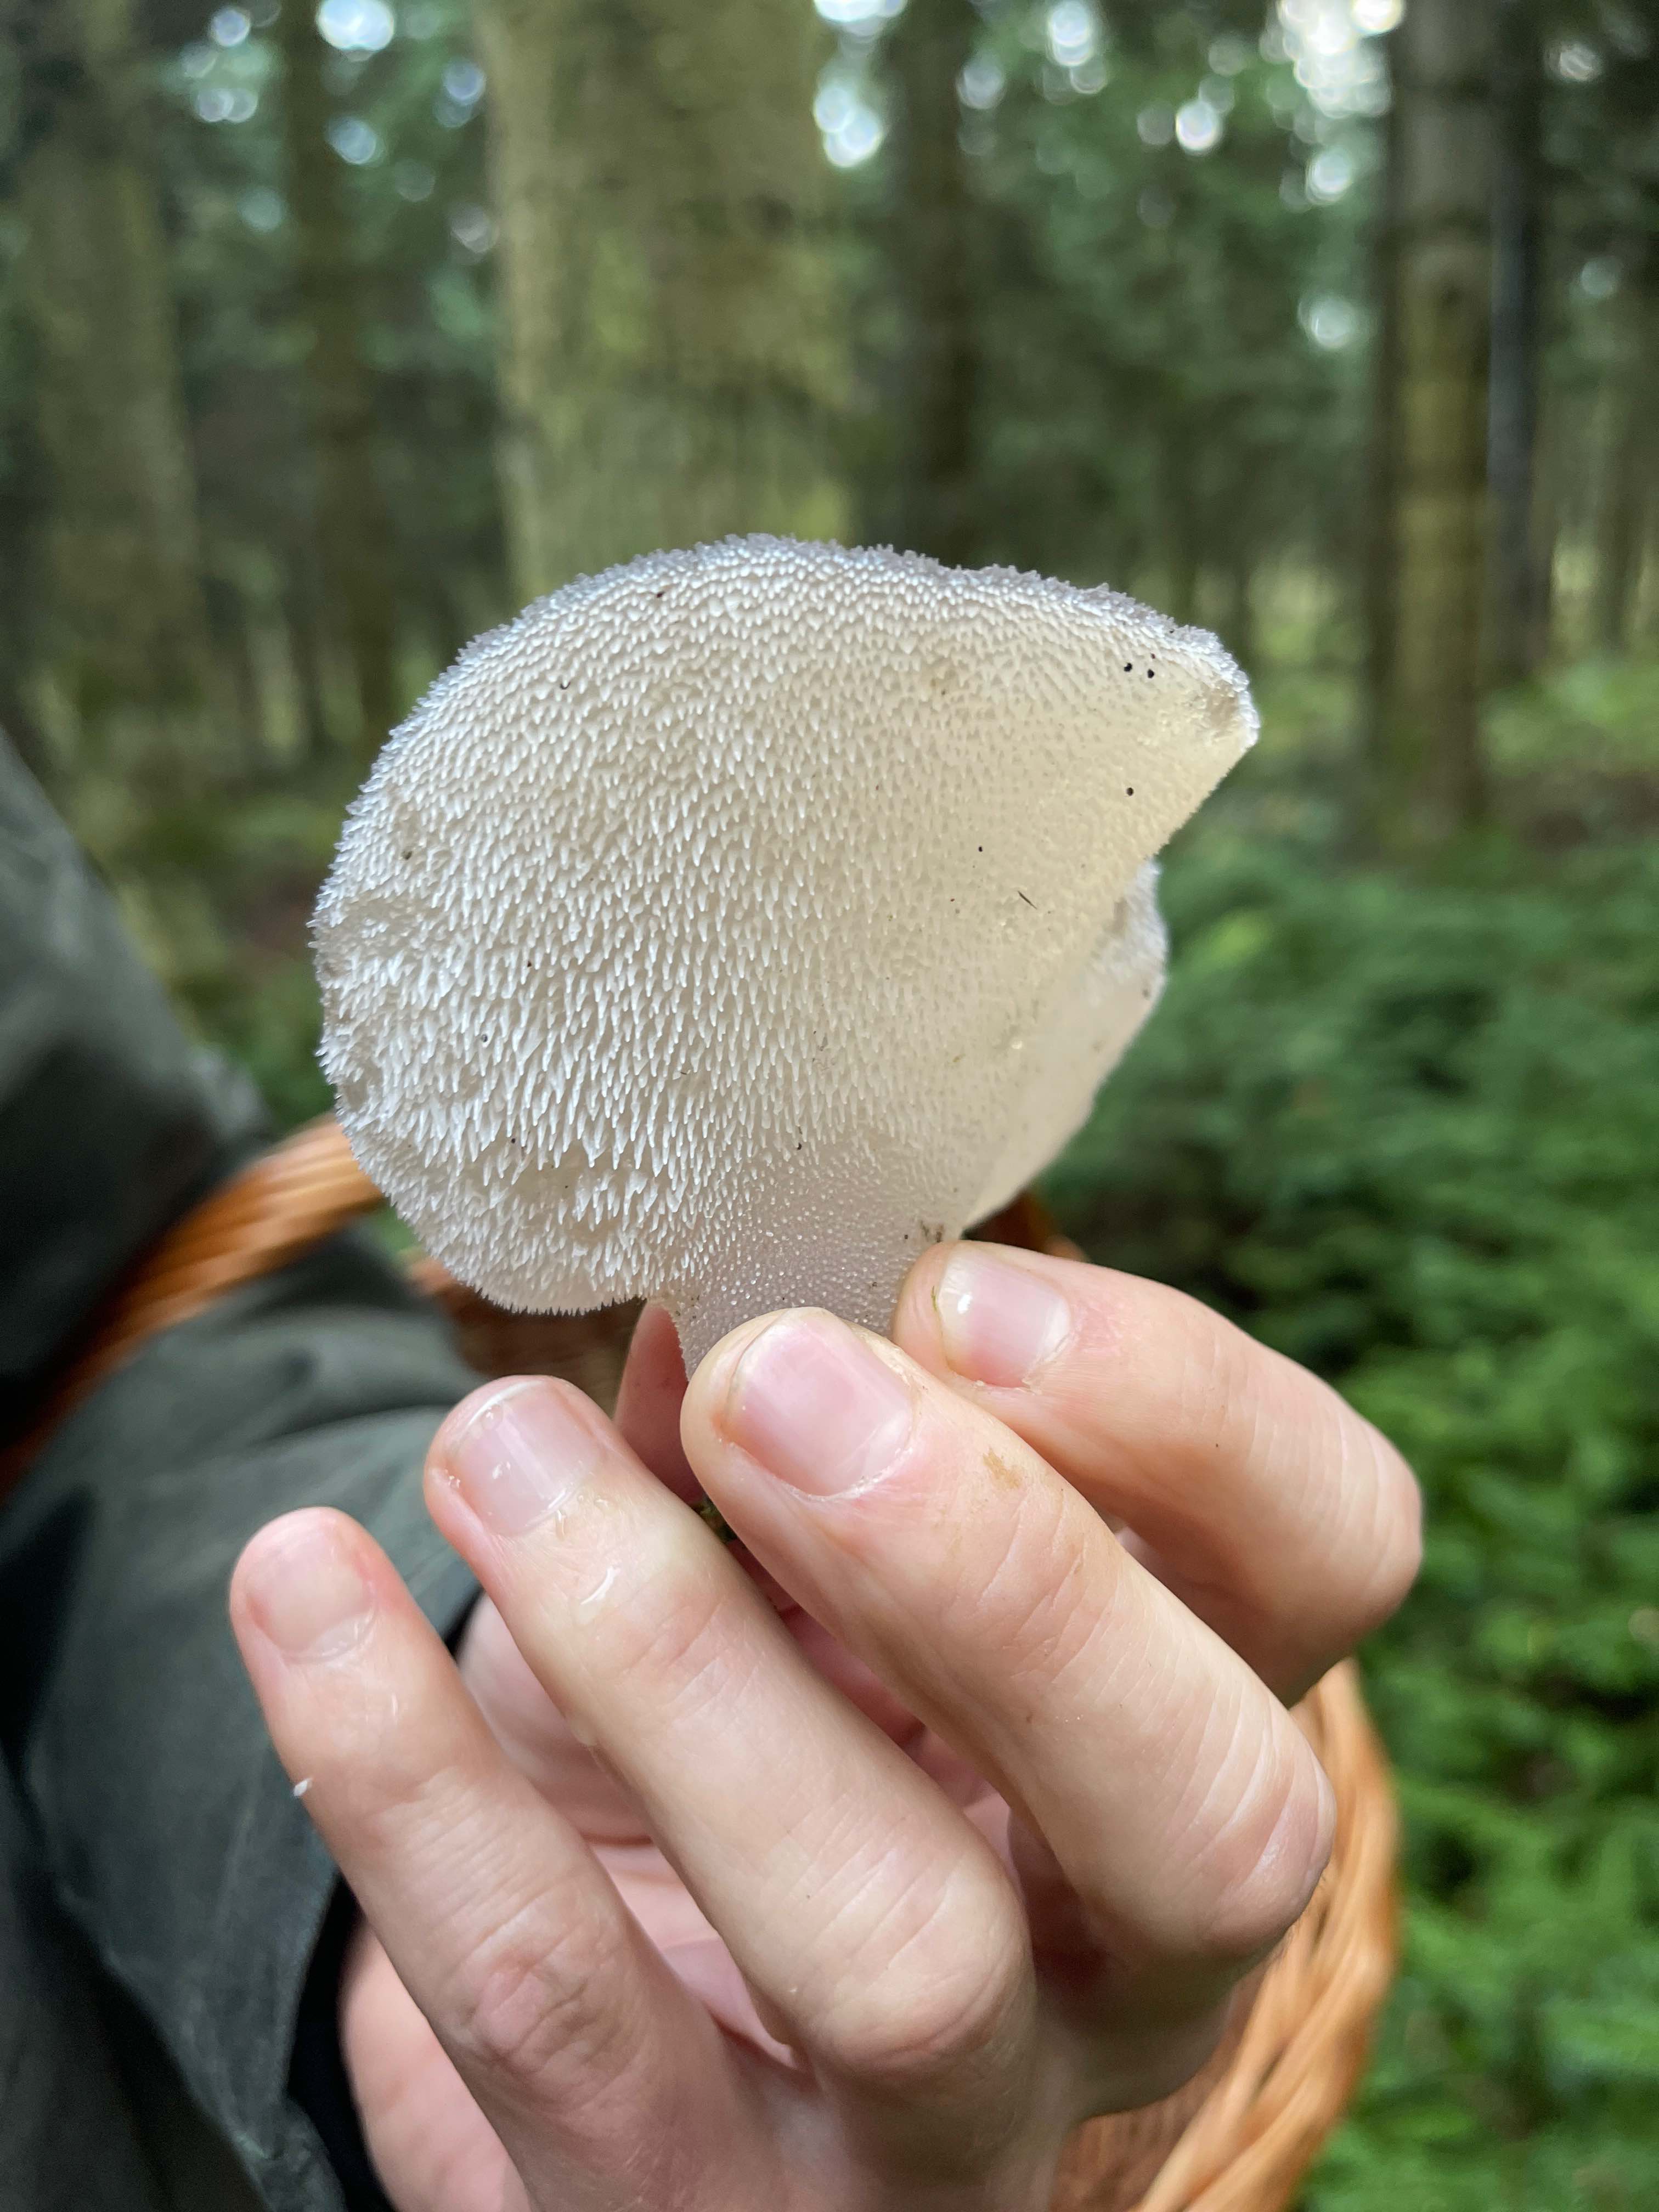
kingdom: Fungi
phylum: Basidiomycota
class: Agaricomycetes
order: Auriculariales
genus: Pseudohydnum
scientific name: Pseudohydnum gelatinosum
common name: bævretand
